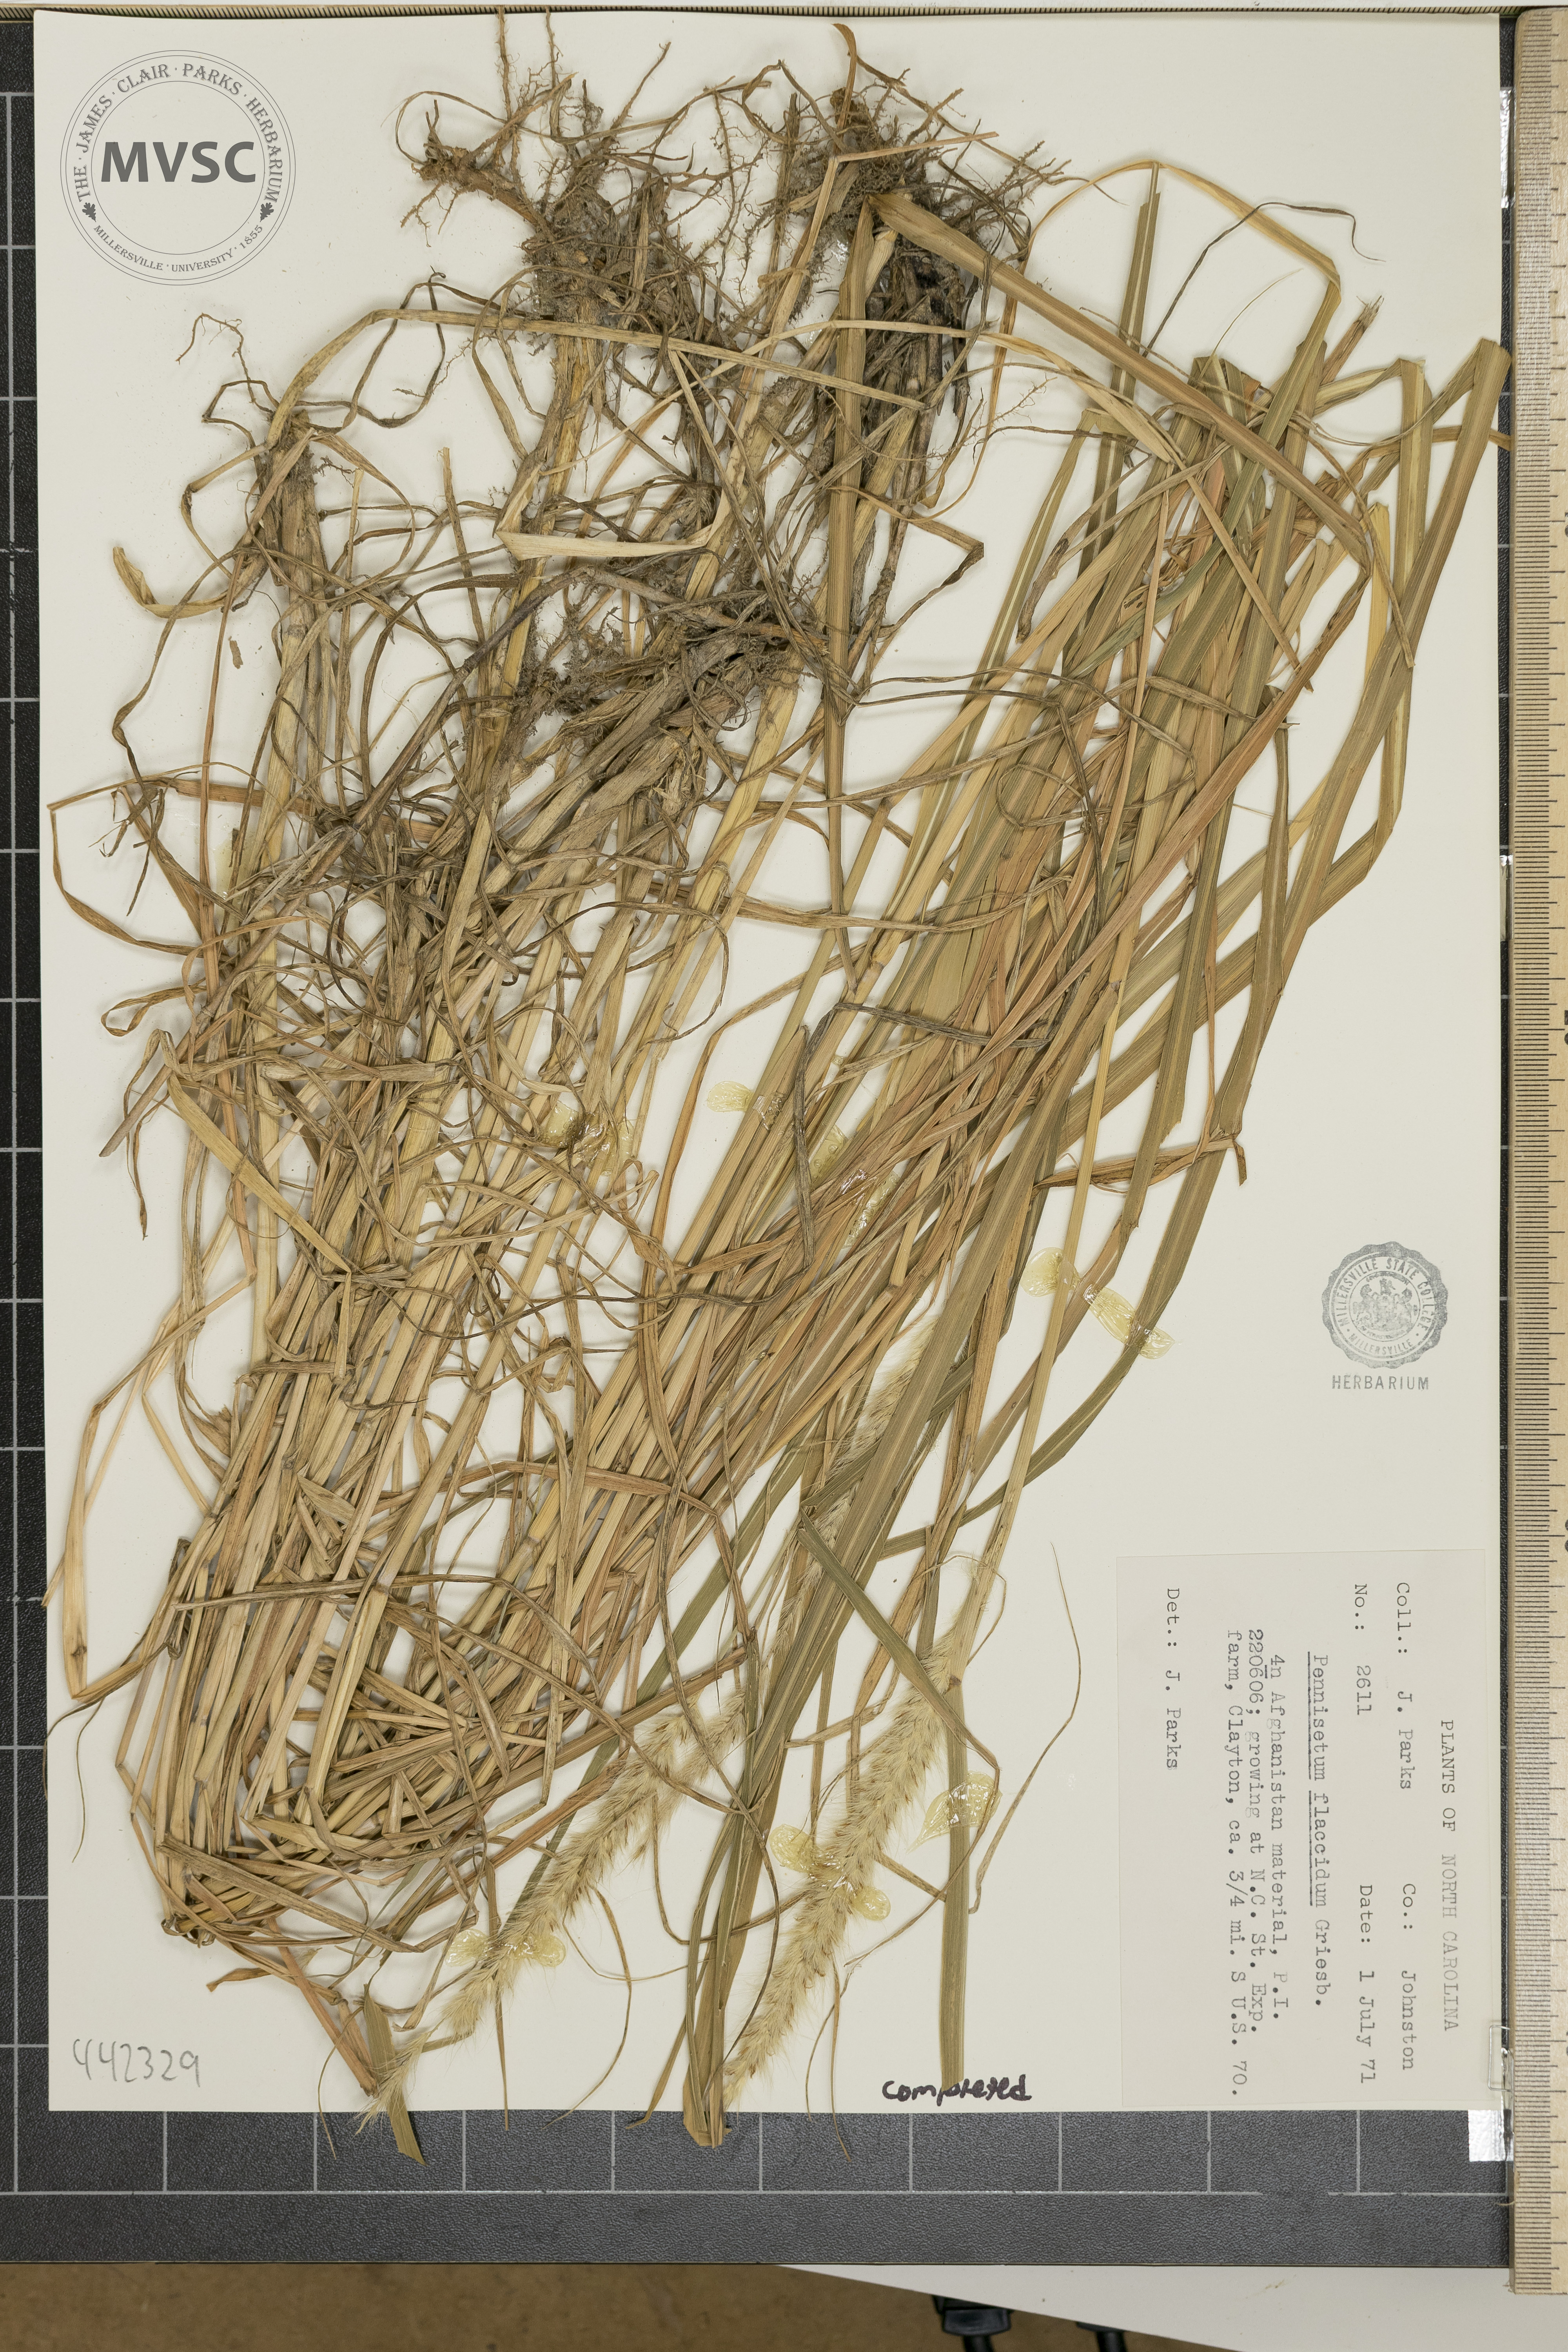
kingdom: Plantae
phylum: Tracheophyta
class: Liliopsida
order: Poales
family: Poaceae
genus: Cenchrus
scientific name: Cenchrus flaccidus
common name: Flaccid grass
